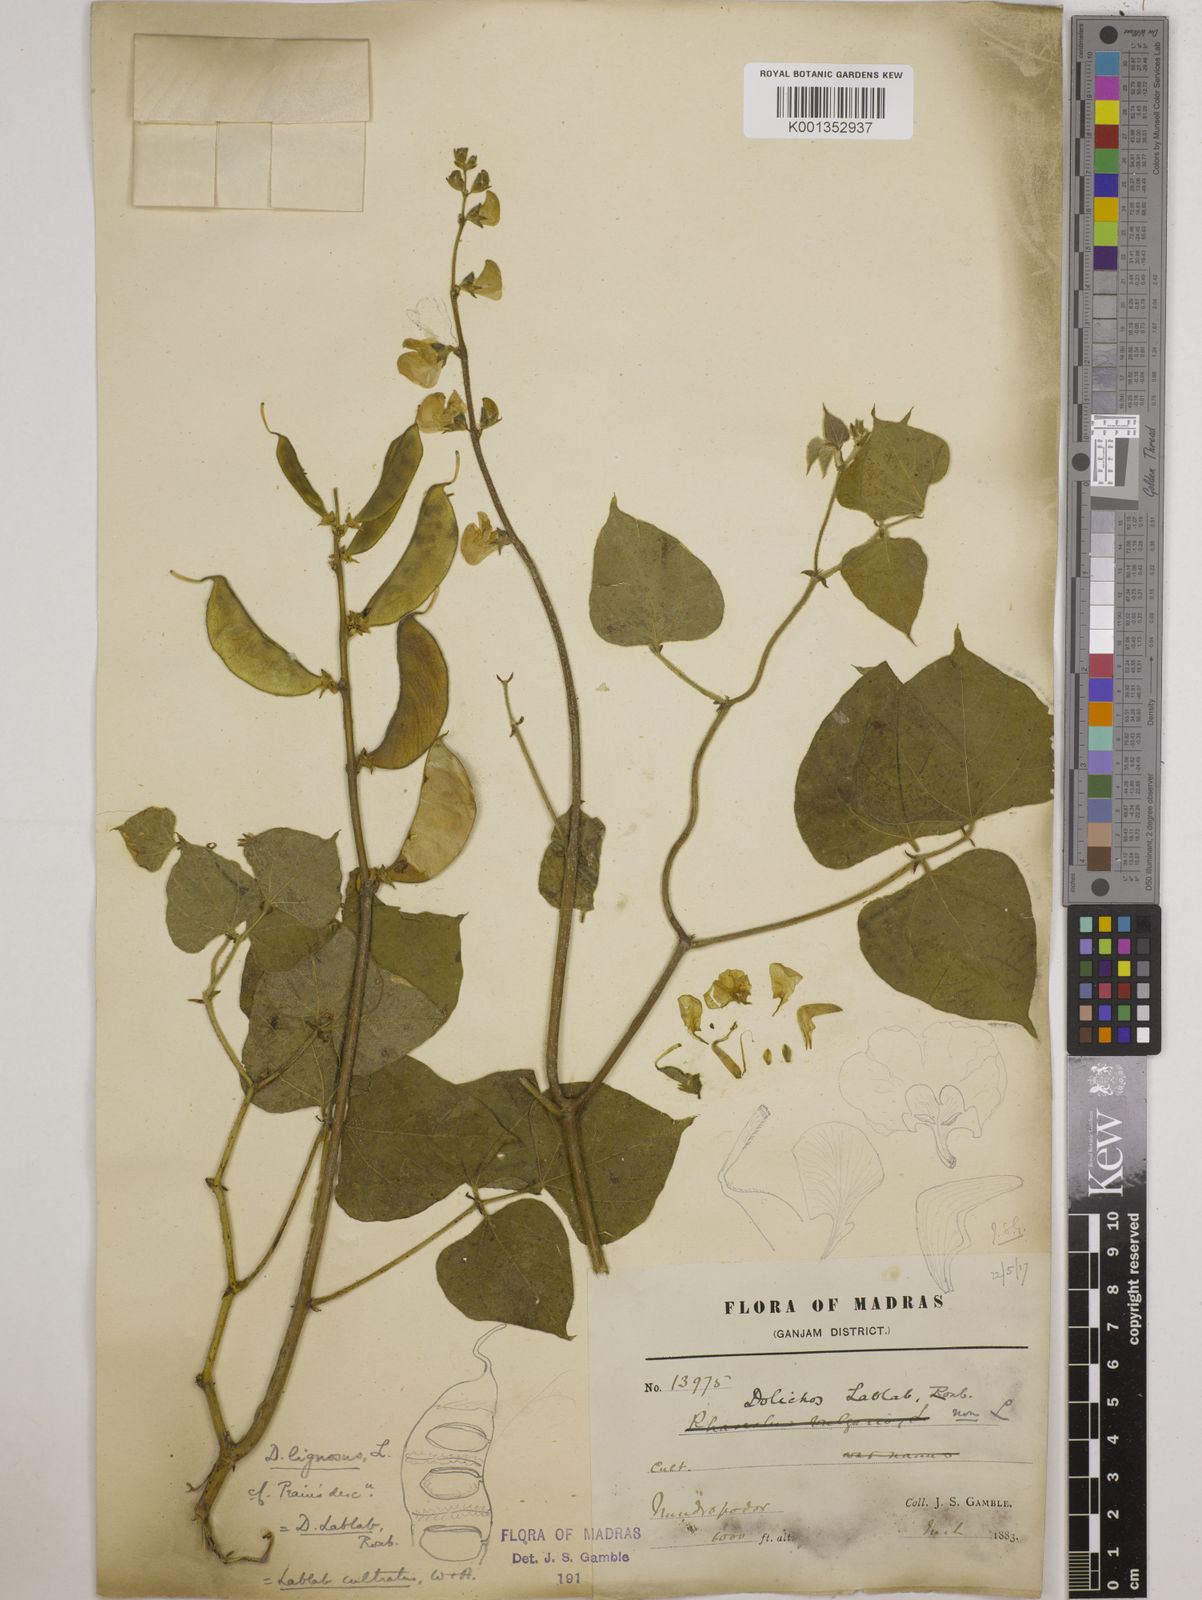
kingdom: Plantae
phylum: Tracheophyta
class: Magnoliopsida
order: Fabales
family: Fabaceae
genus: Lablab
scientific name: Lablab purpureus
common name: Lablab-bean
